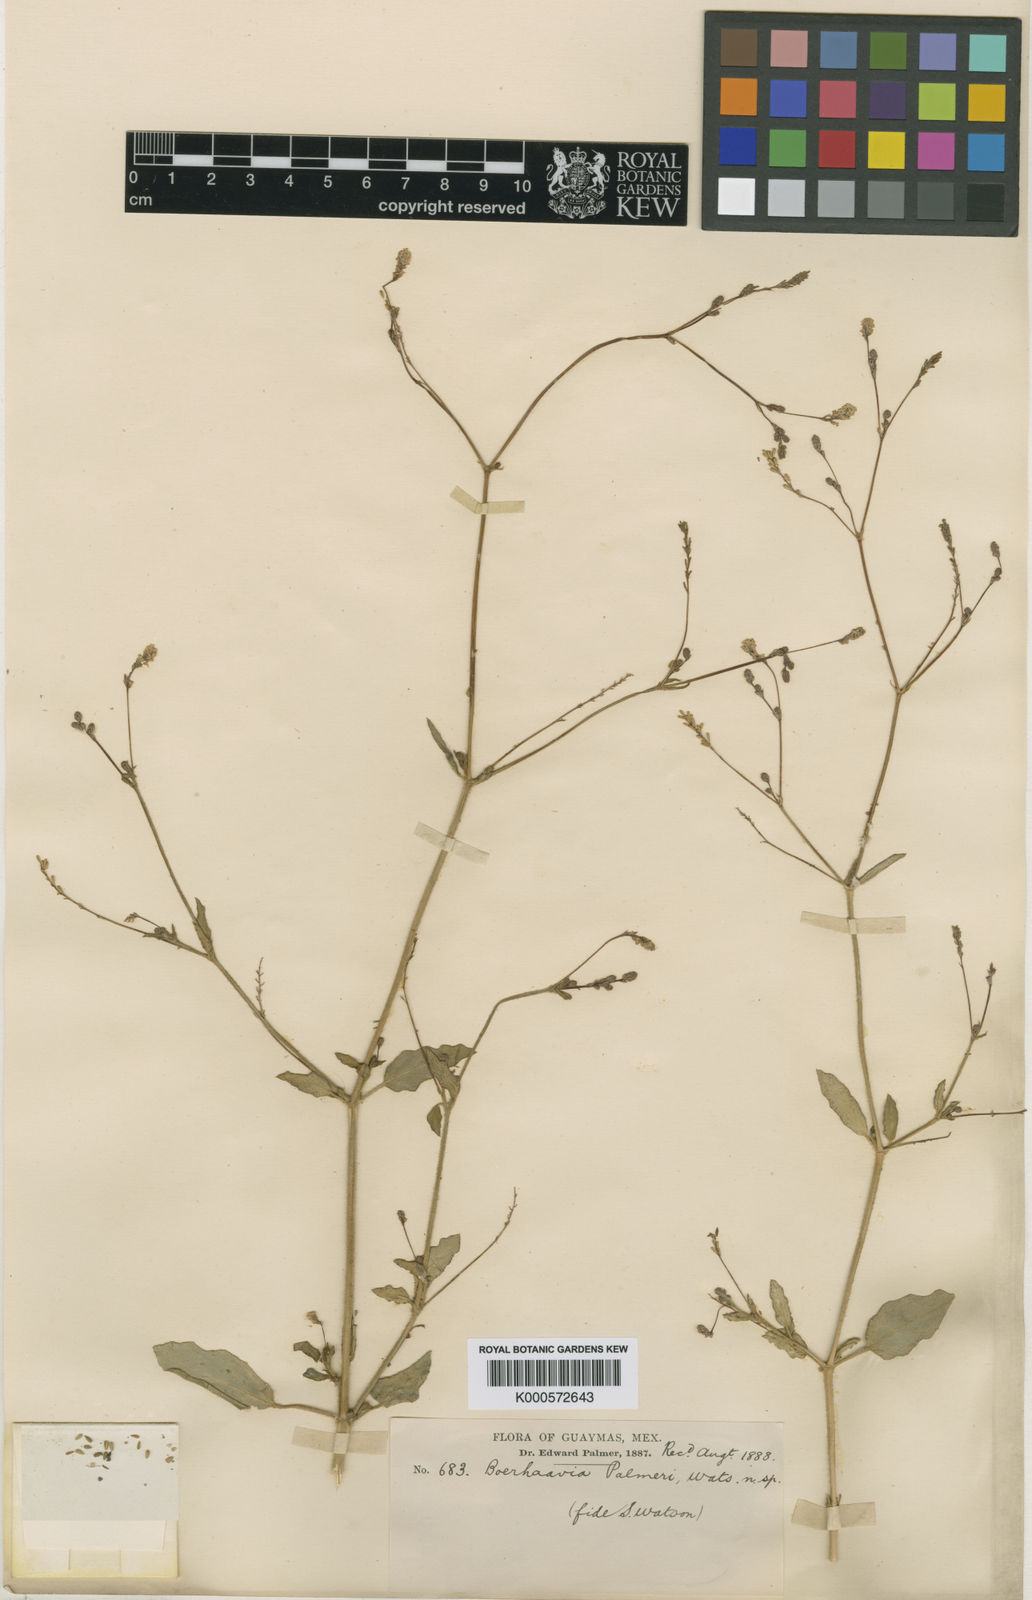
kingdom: Plantae
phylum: Tracheophyta
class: Magnoliopsida
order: Caryophyllales
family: Nyctaginaceae
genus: Boerhavia
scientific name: Boerhavia coulteri
